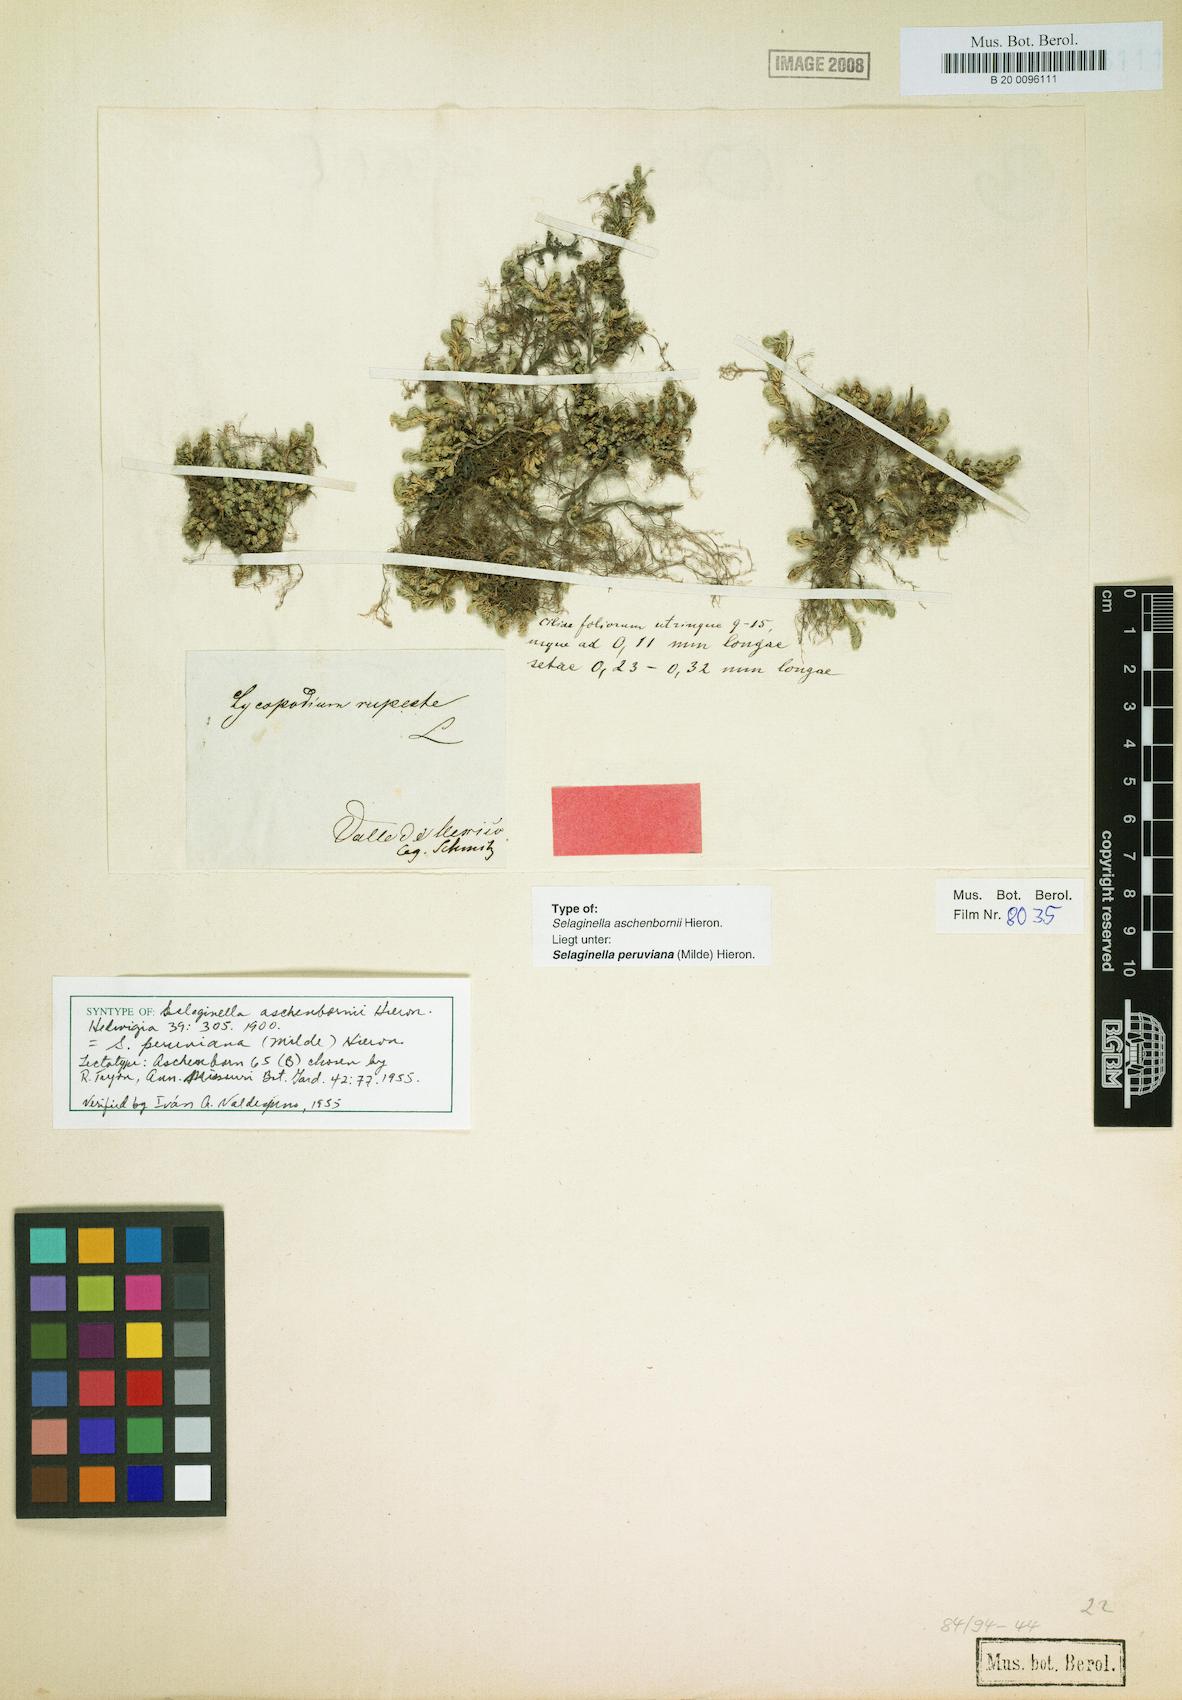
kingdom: Plantae
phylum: Tracheophyta
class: Lycopodiopsida
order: Selaginellales
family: Selaginellaceae
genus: Selaginella
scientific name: Selaginella peruviana
